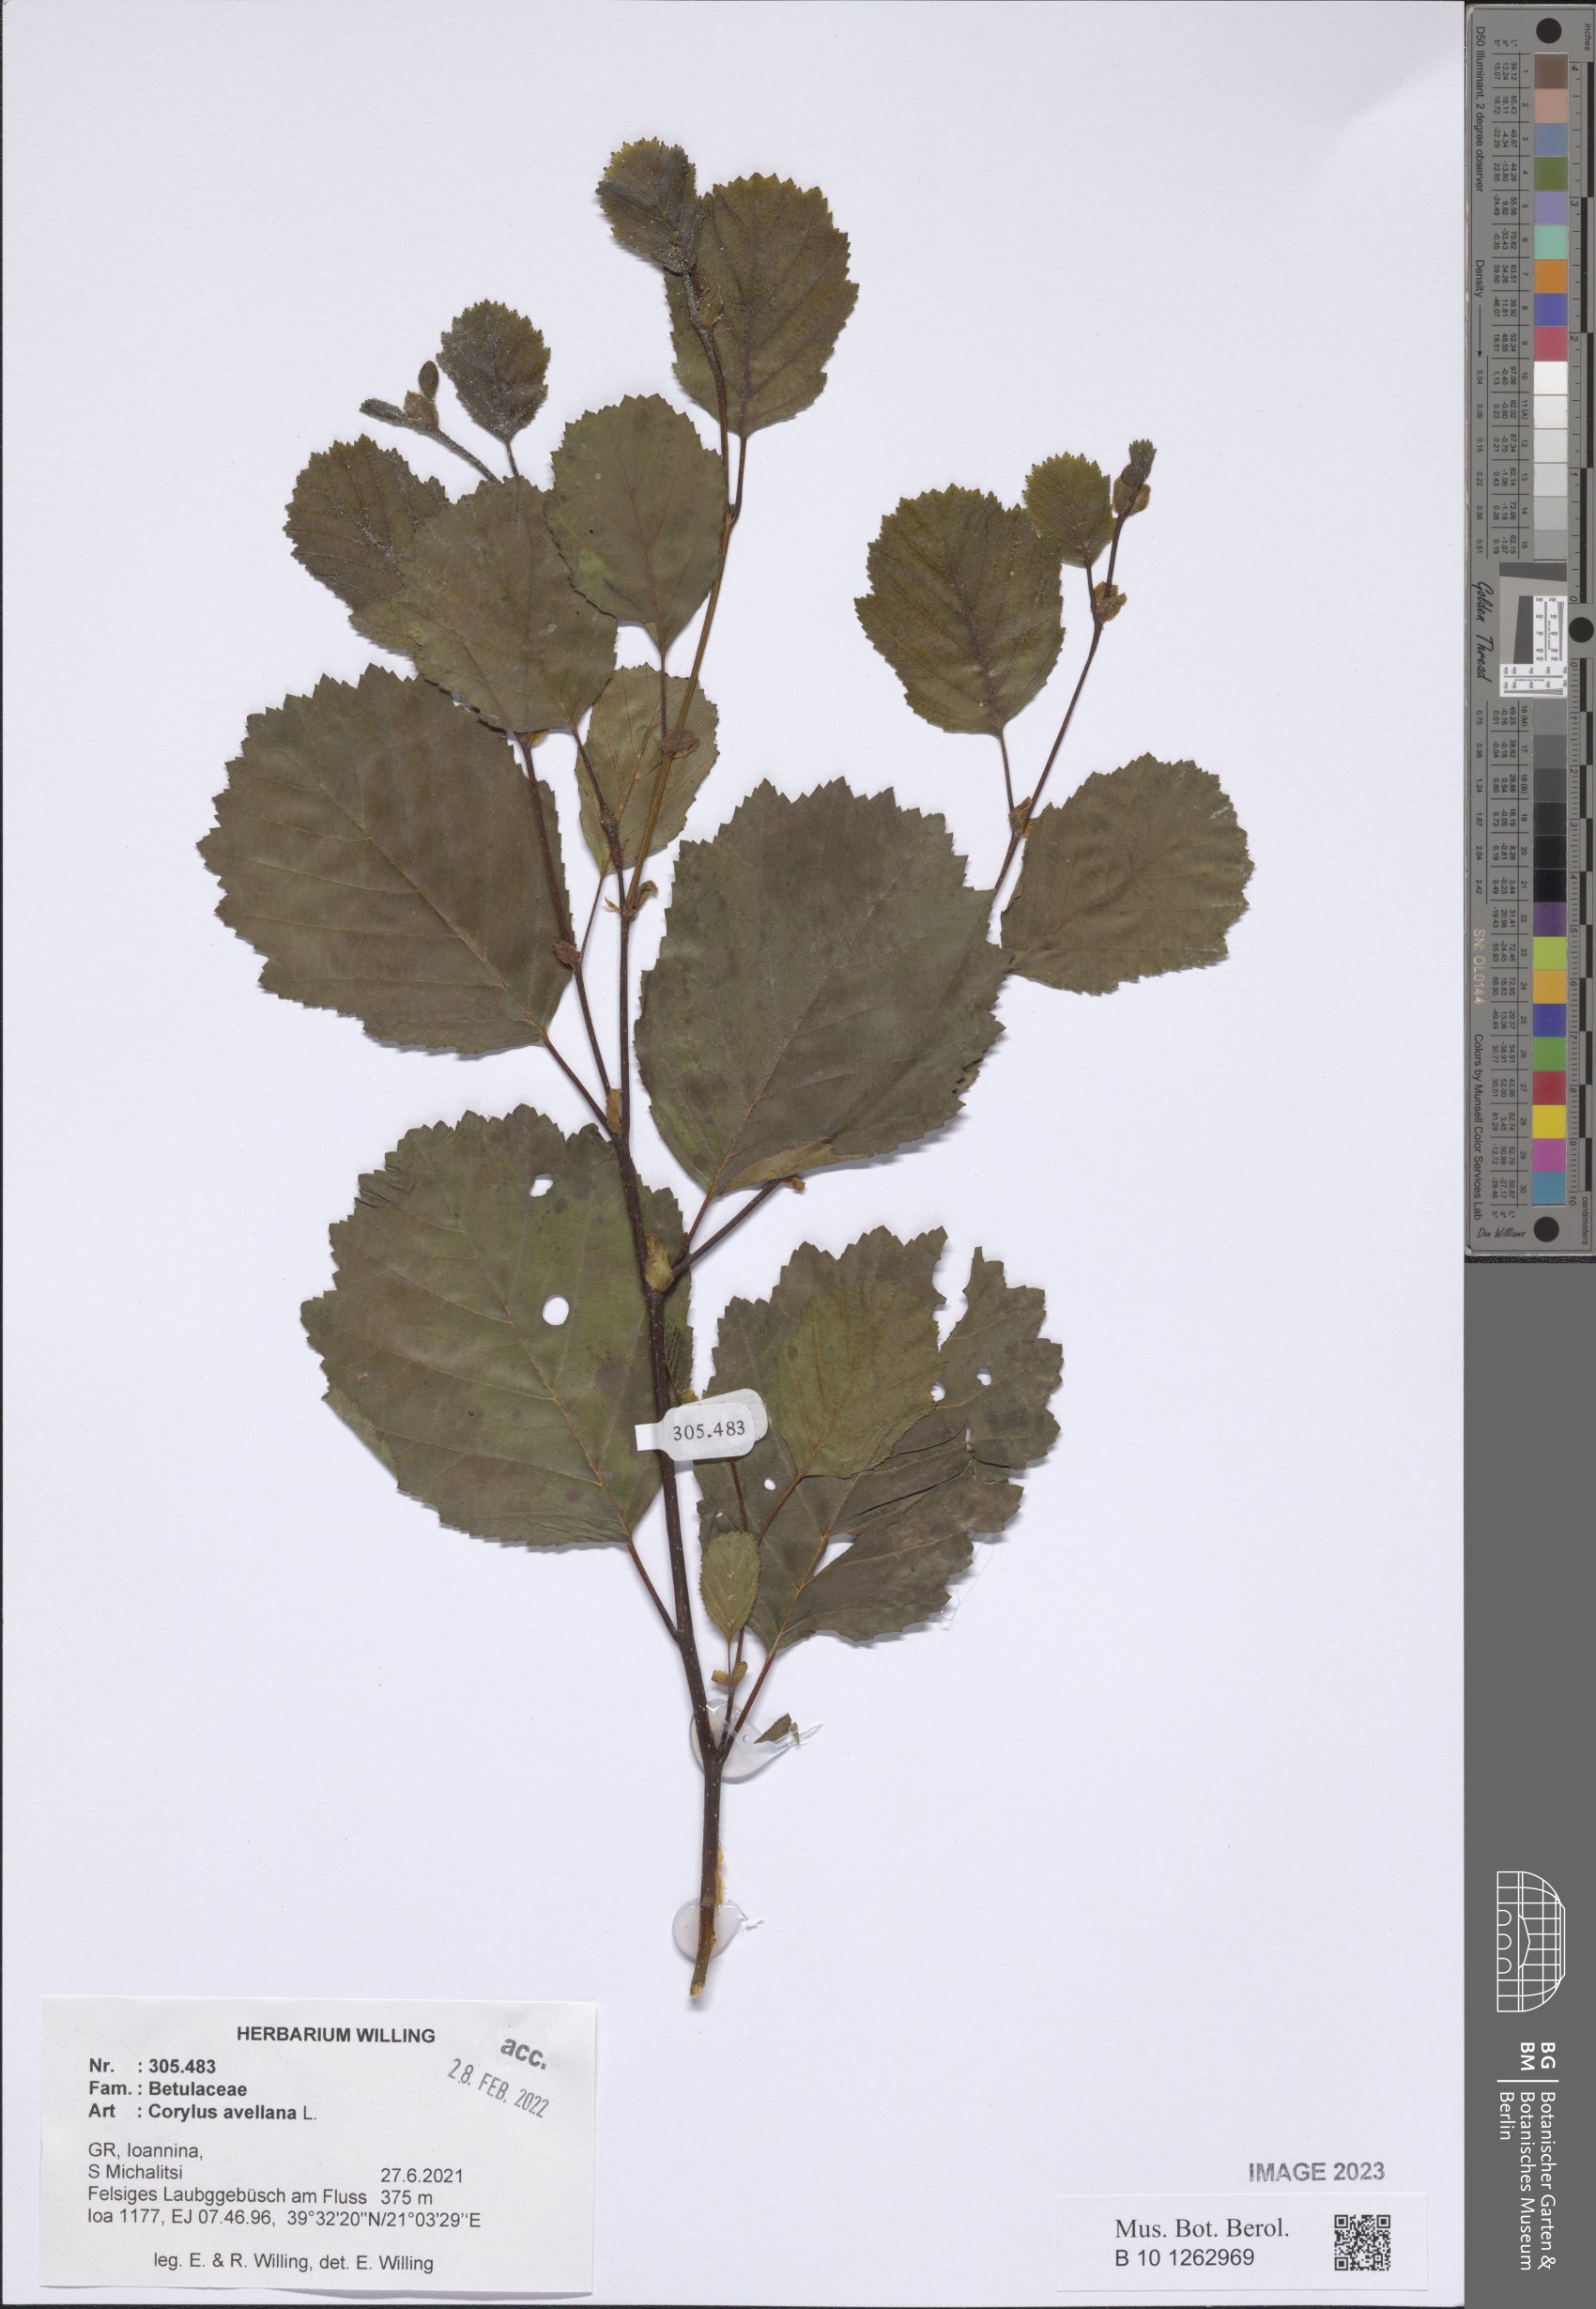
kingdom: Plantae
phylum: Tracheophyta
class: Magnoliopsida
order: Fagales
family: Betulaceae
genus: Corylus
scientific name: Corylus avellana
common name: European hazel
